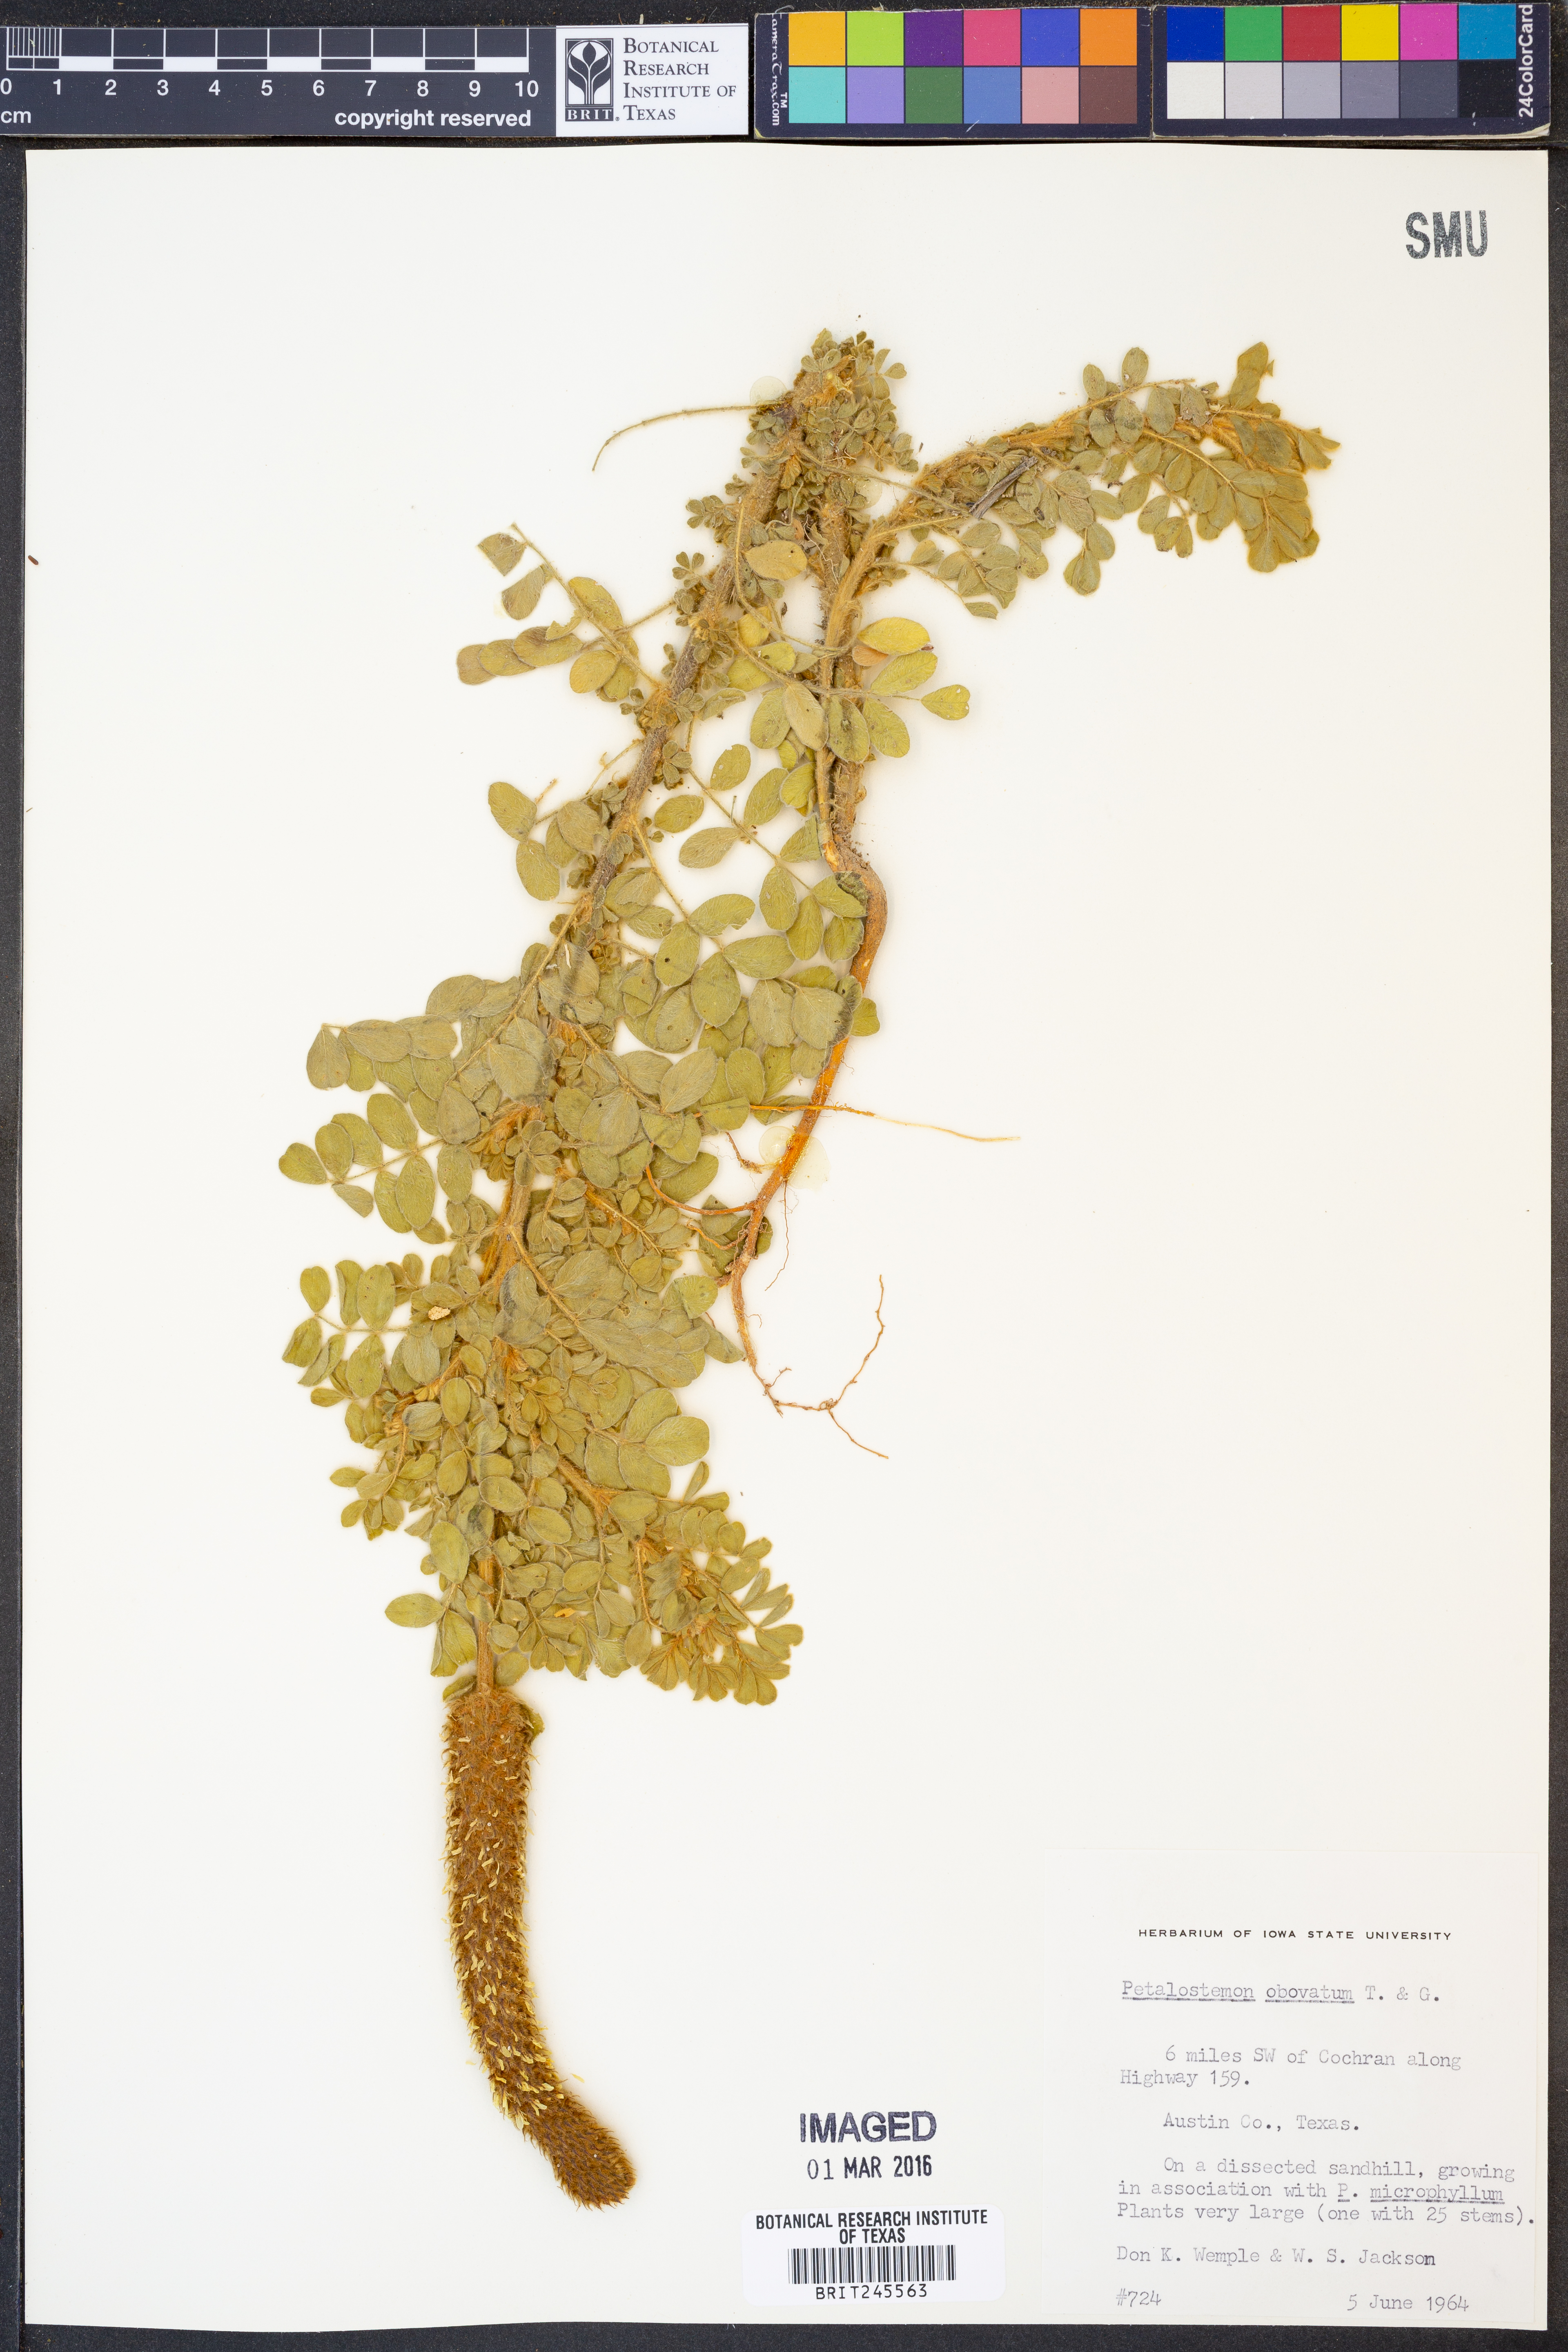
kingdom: Plantae
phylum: Tracheophyta
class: Magnoliopsida
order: Fabales
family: Fabaceae
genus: Dalea
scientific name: Dalea obovata
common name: Pussyfoot
